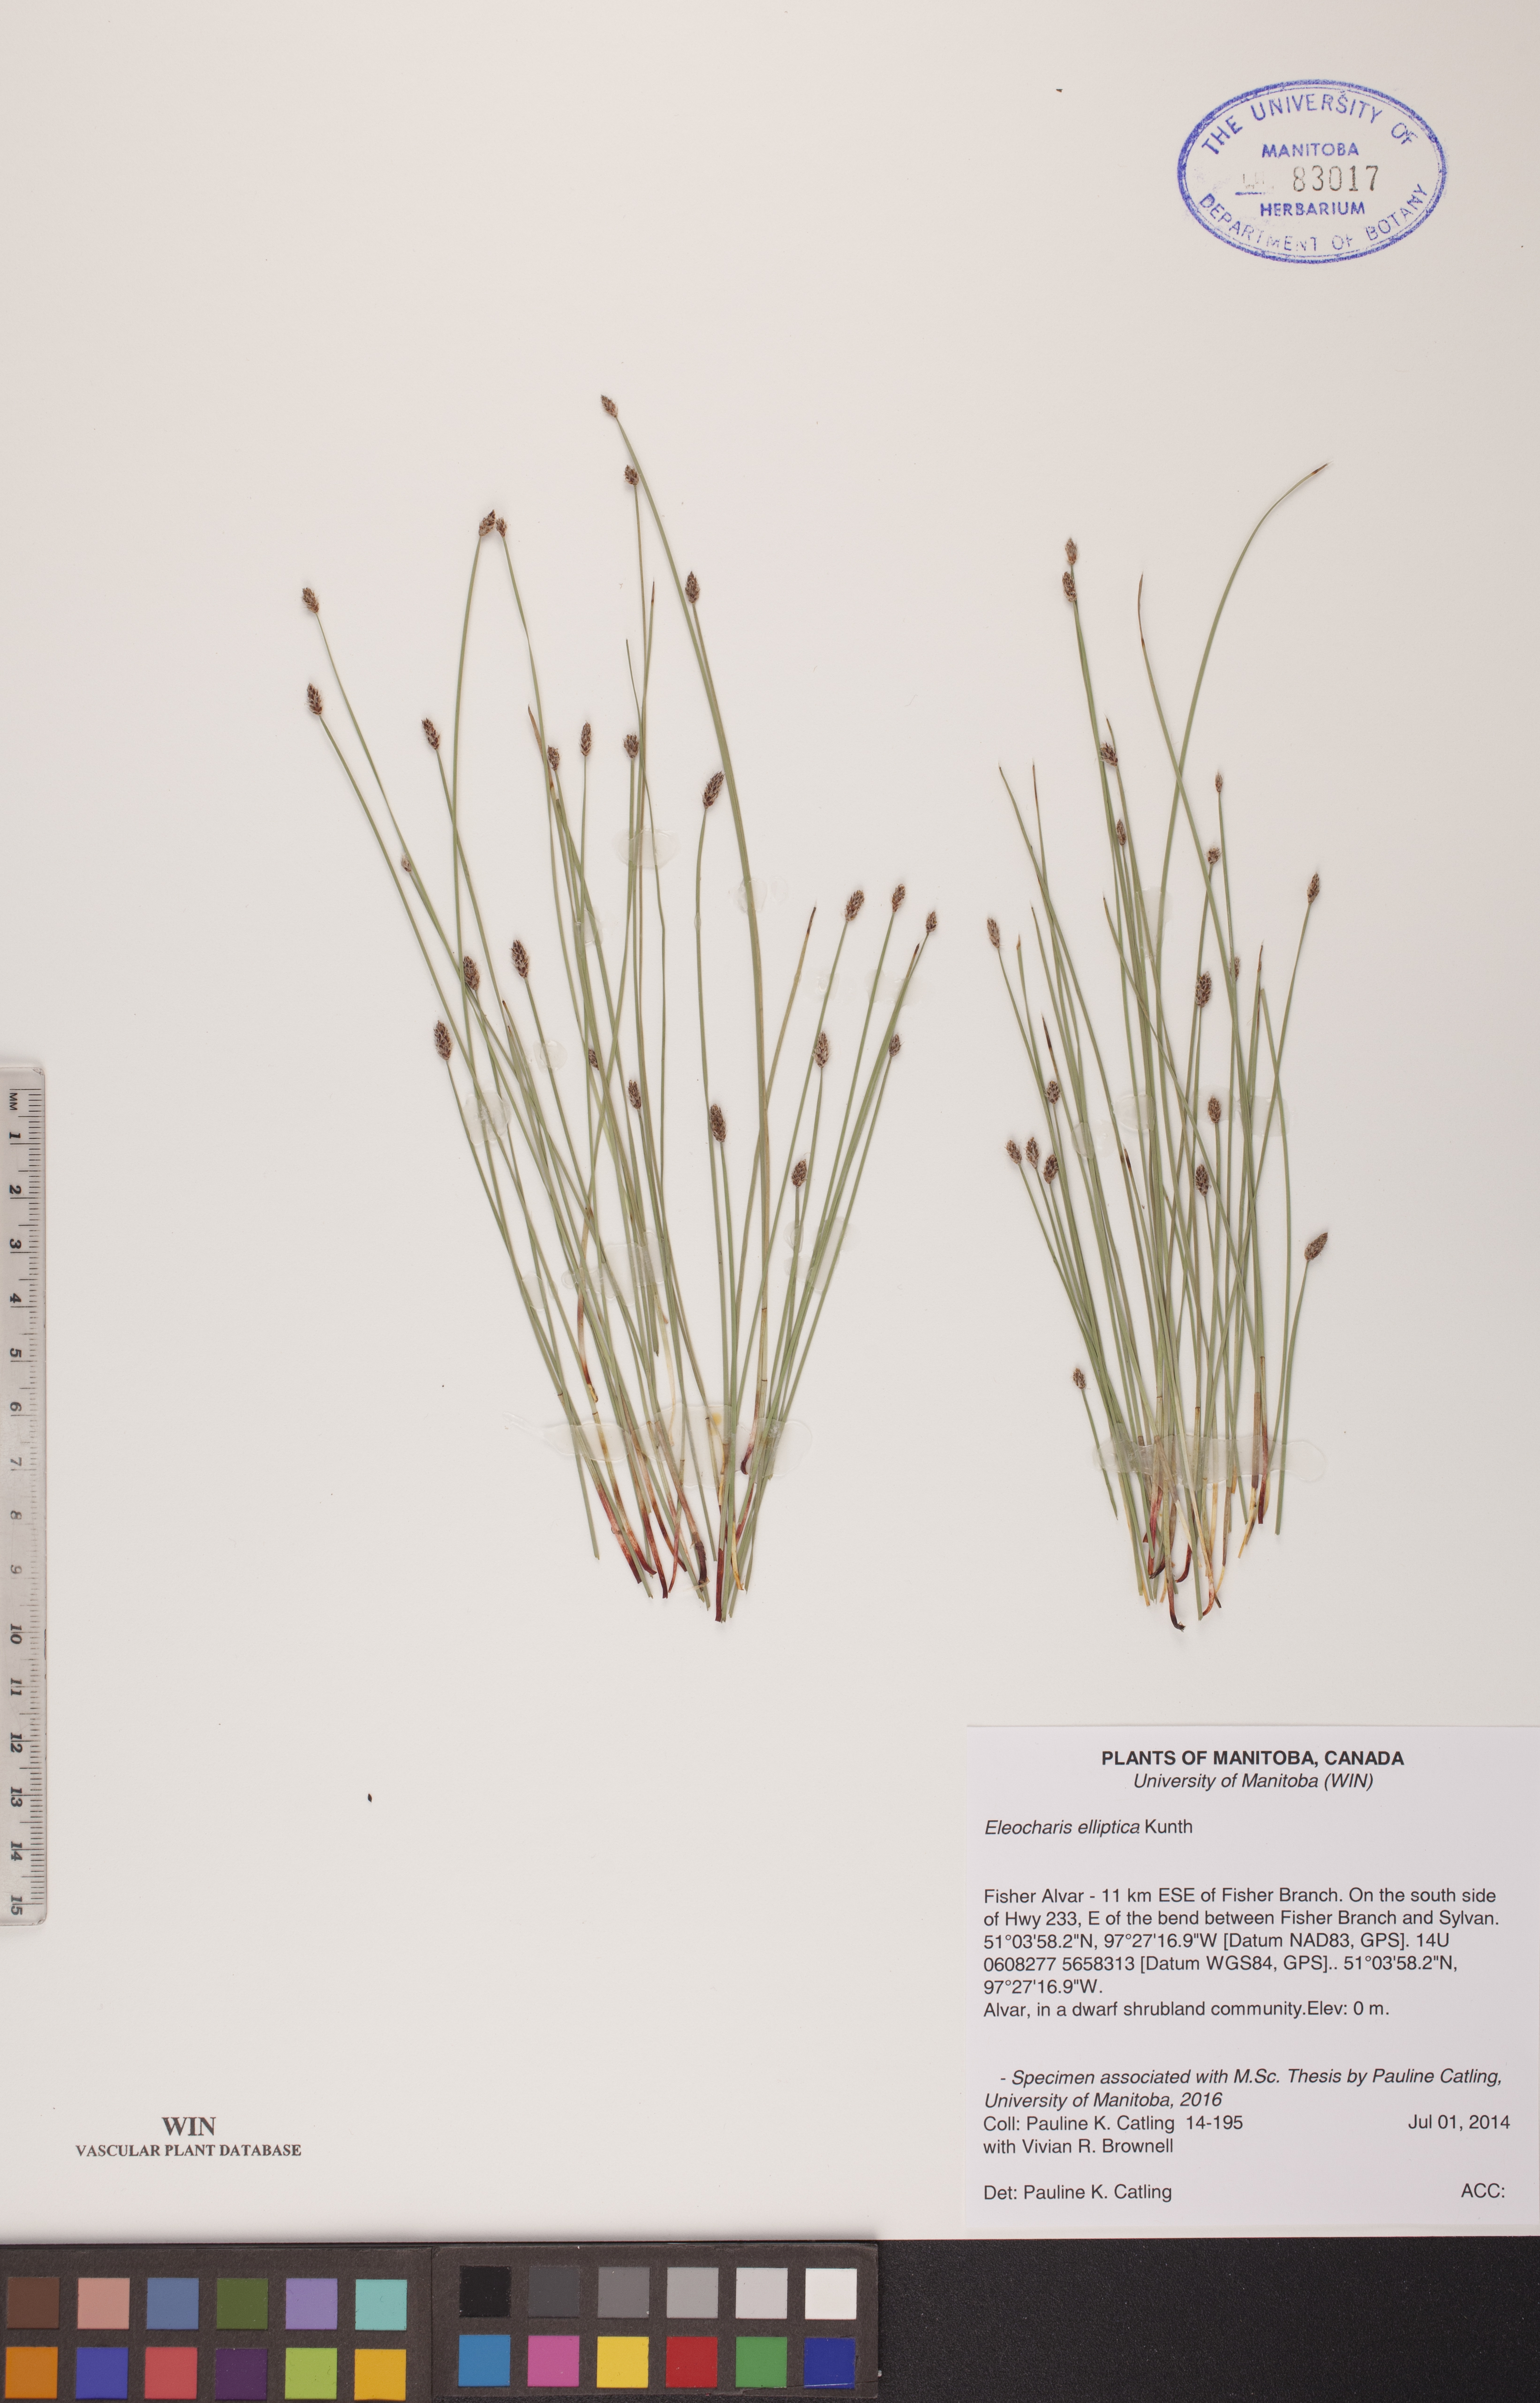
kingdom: Plantae
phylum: Tracheophyta
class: Liliopsida
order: Poales
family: Cyperaceae
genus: Eleocharis
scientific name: Eleocharis elliptica
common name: Capitate spikerush
